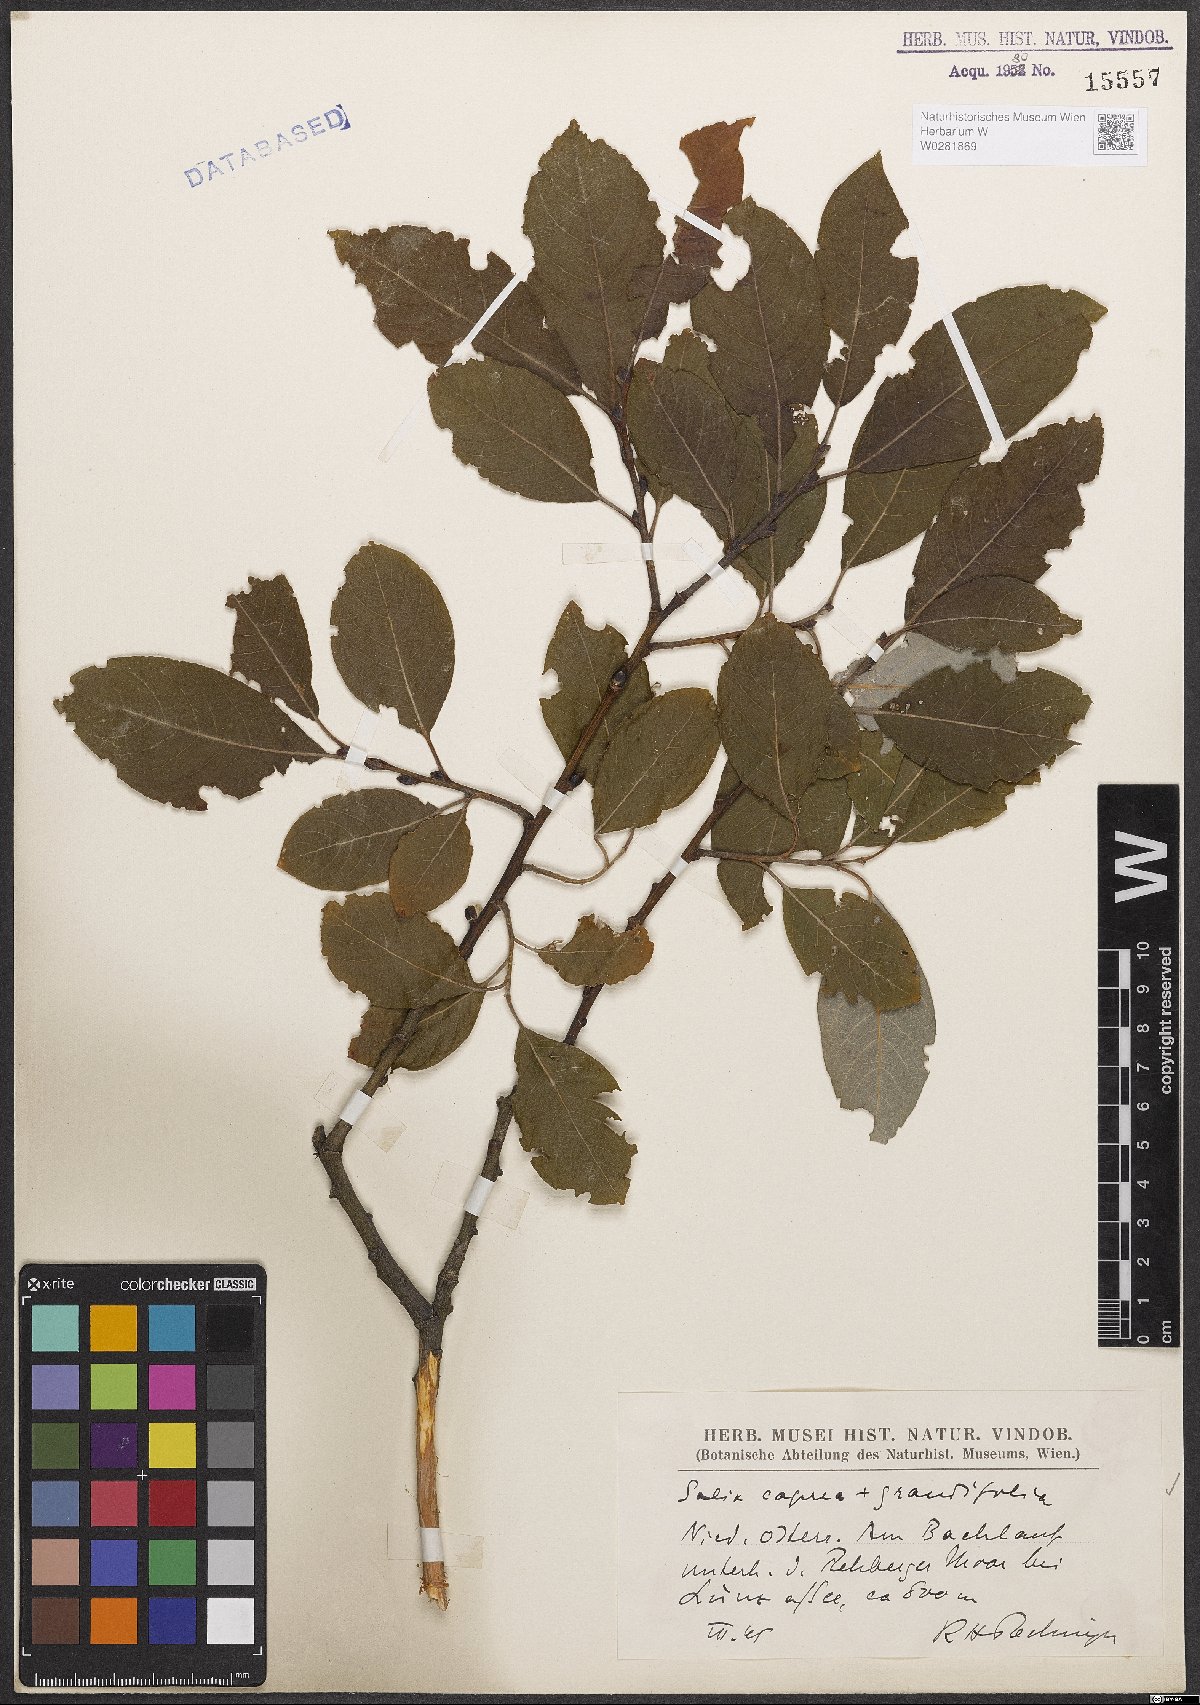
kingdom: Plantae
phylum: Tracheophyta
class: Magnoliopsida
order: Malpighiales
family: Salicaceae
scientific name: Salicaceae
